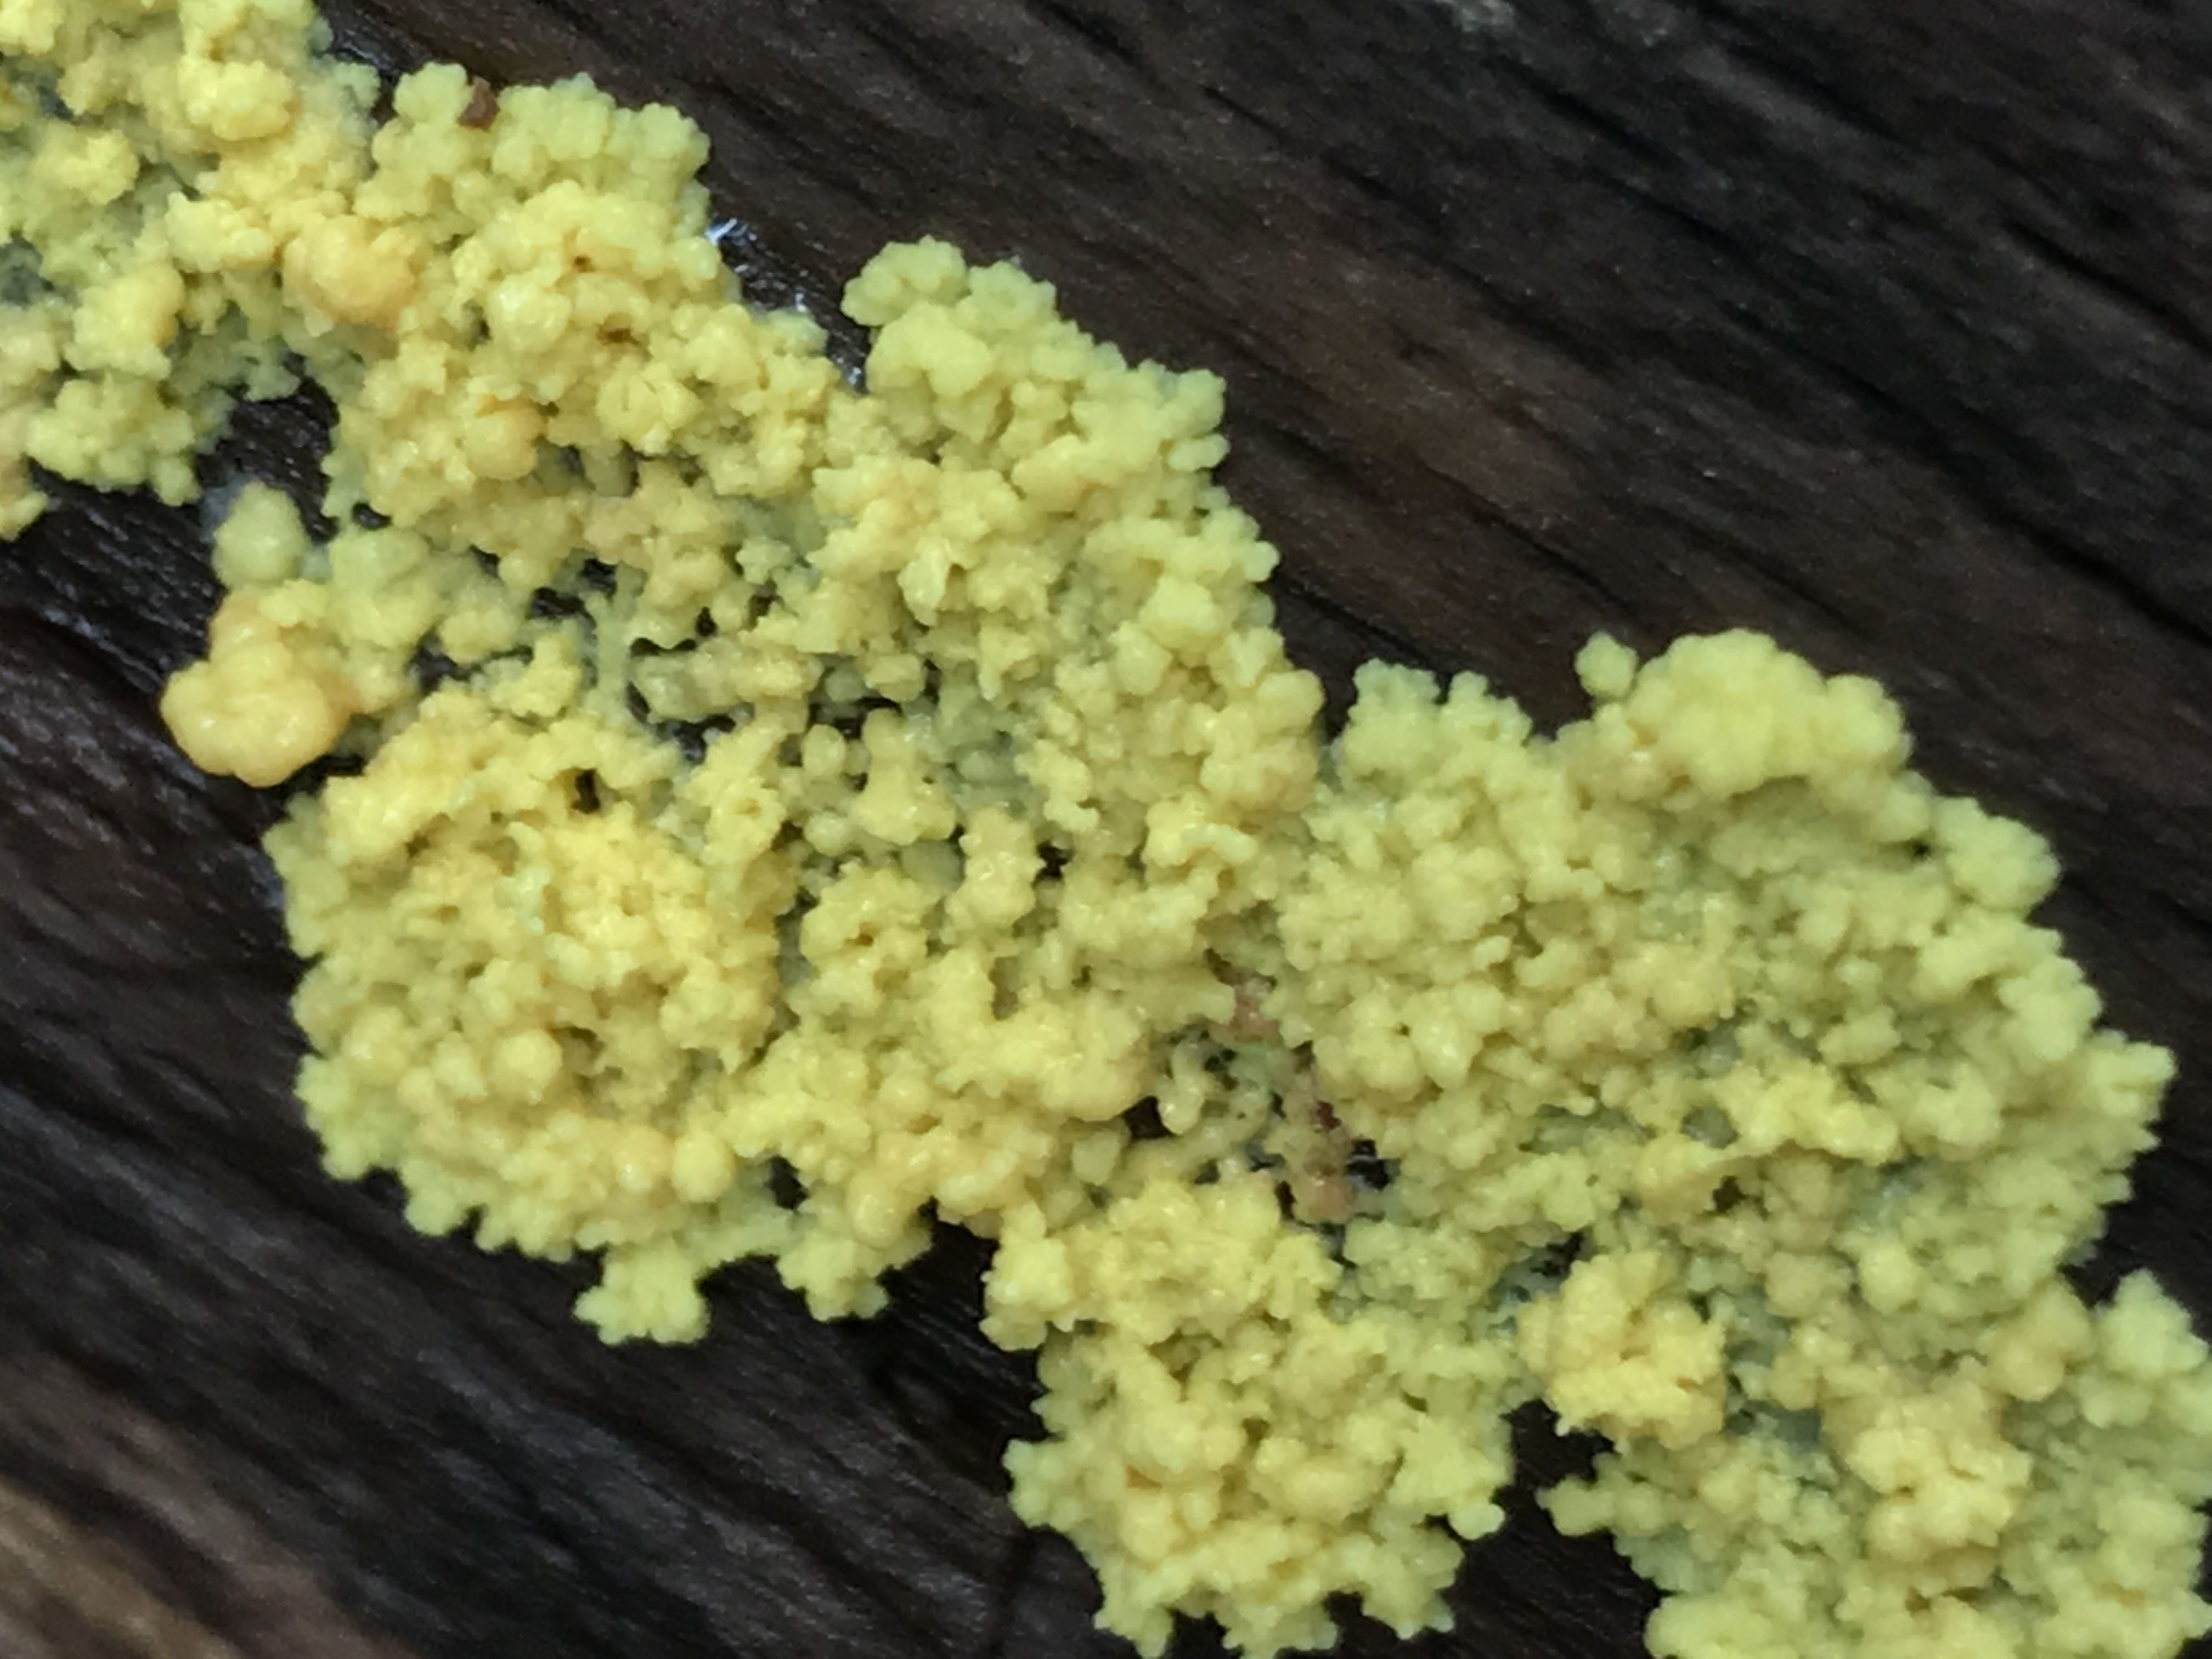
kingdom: Protozoa
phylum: Mycetozoa
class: Myxomycetes
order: Physarales
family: Physaraceae
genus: Fuligo
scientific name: Fuligo septica
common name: gul troldsmør
